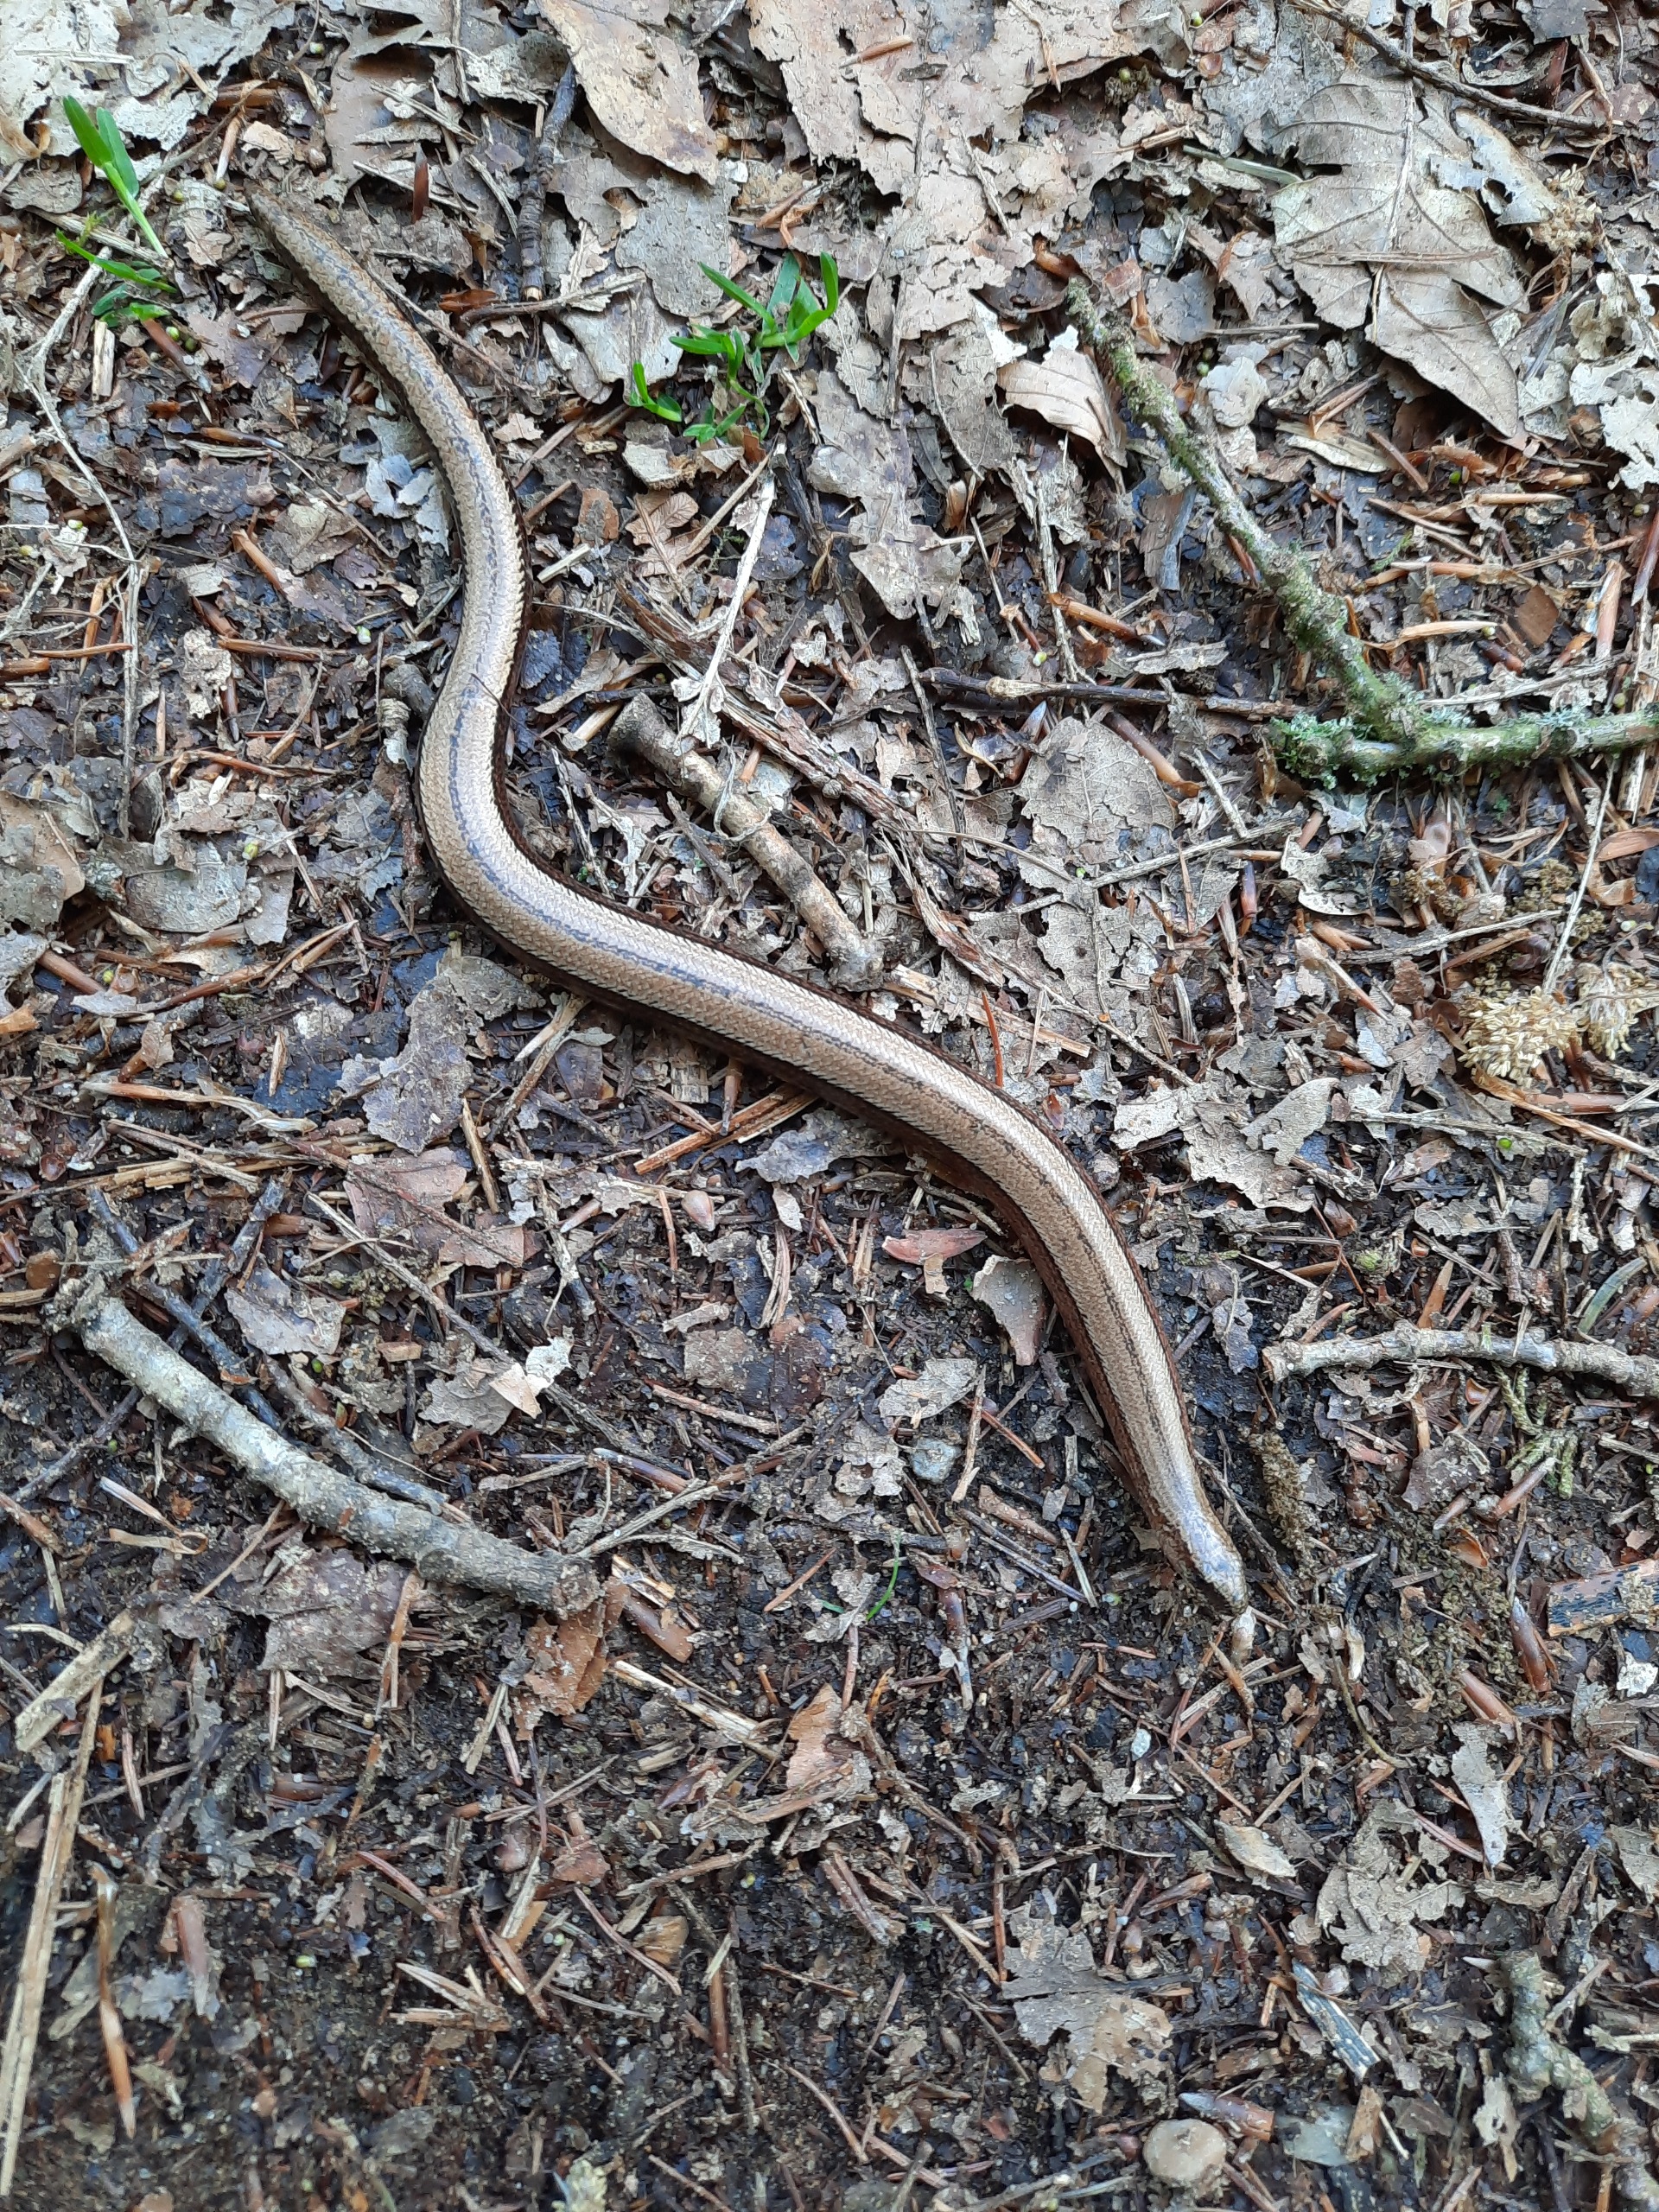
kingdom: Animalia
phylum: Chordata
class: Squamata
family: Anguidae
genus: Anguis
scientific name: Anguis fragilis
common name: Stålorm
